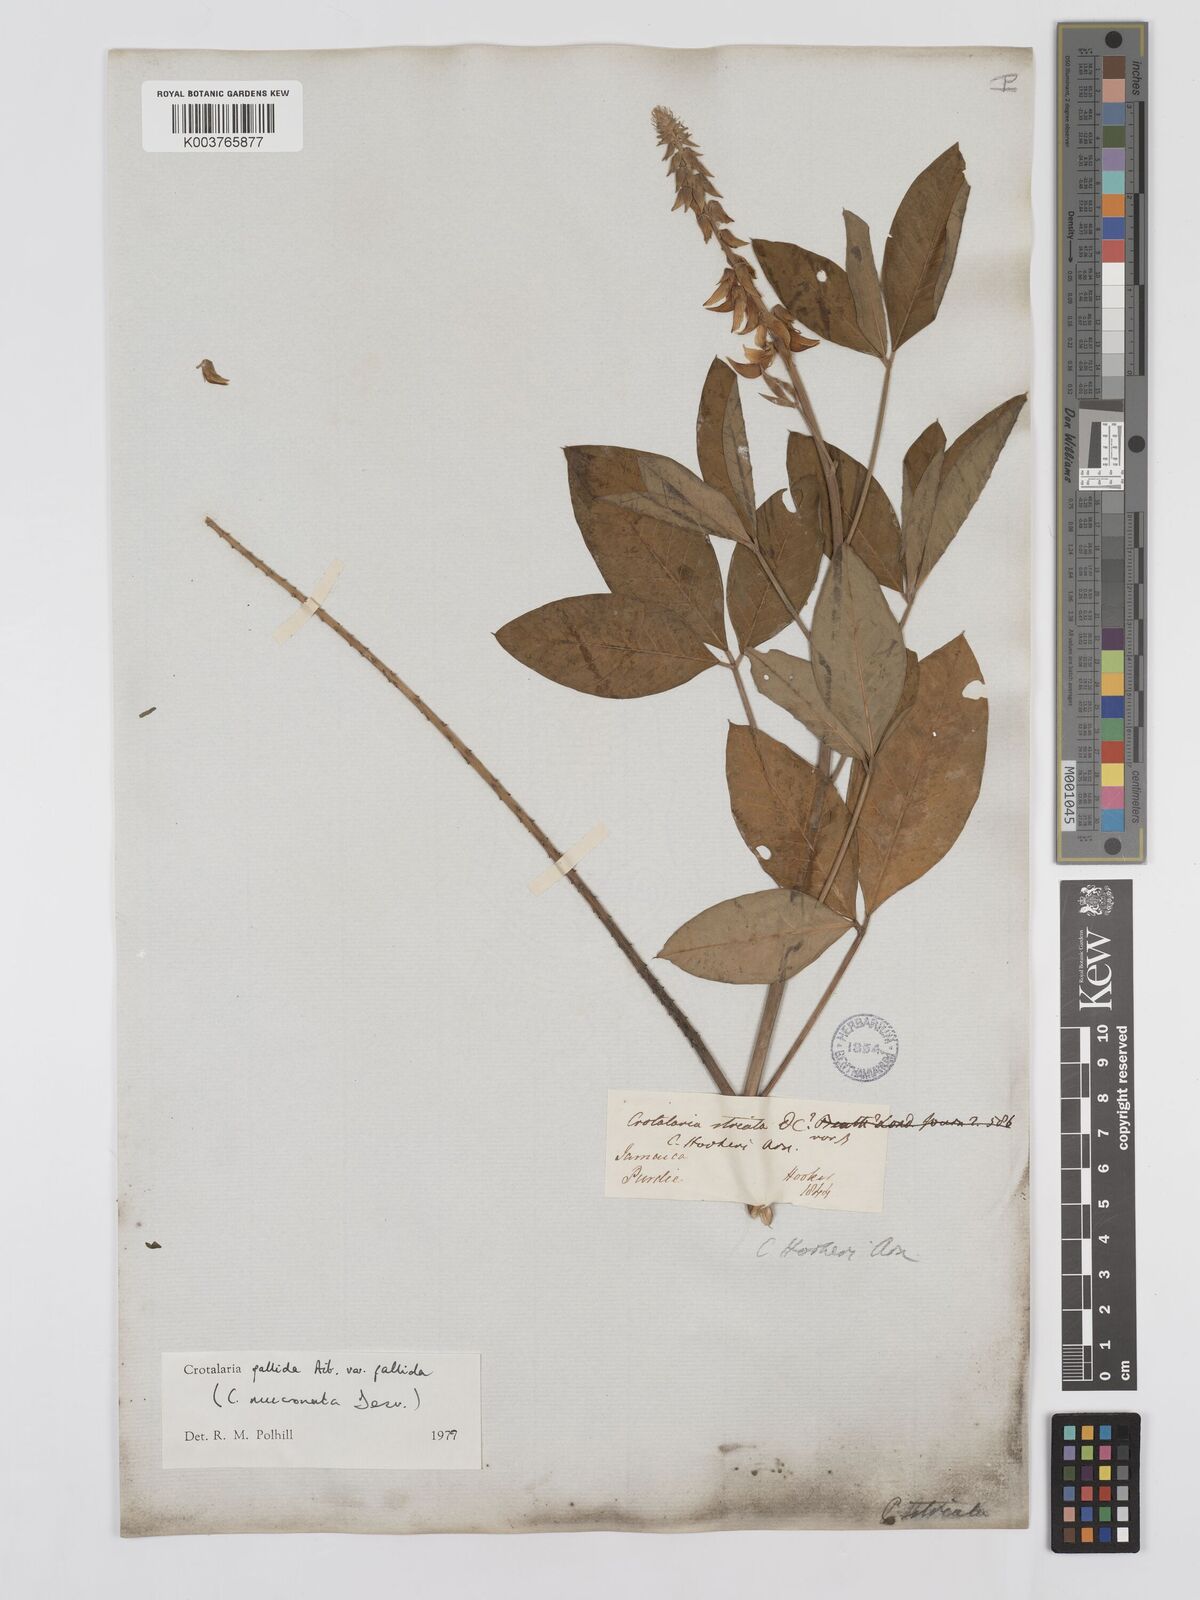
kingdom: Plantae
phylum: Tracheophyta
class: Magnoliopsida
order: Fabales
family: Fabaceae
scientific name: Fabaceae
